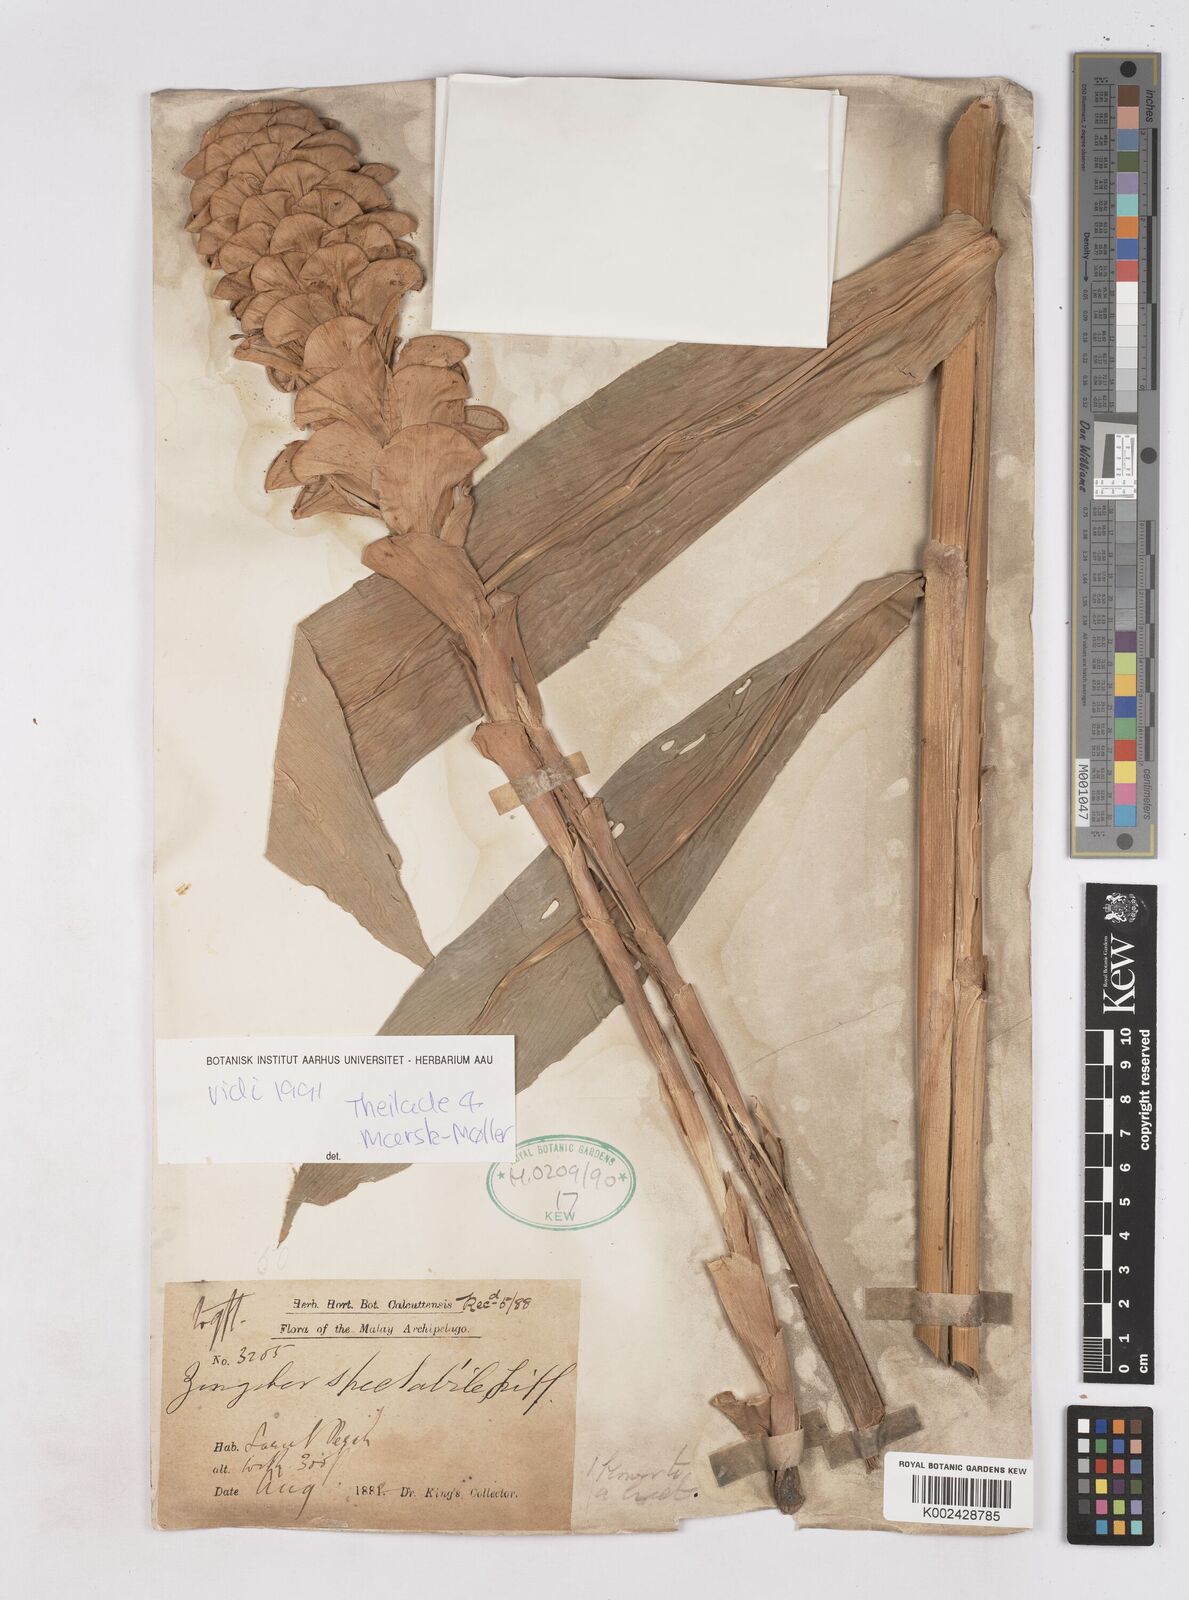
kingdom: Plantae
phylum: Tracheophyta
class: Liliopsida
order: Zingiberales
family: Zingiberaceae
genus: Zingiber
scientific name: Zingiber spectabile
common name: Beehive ginger
